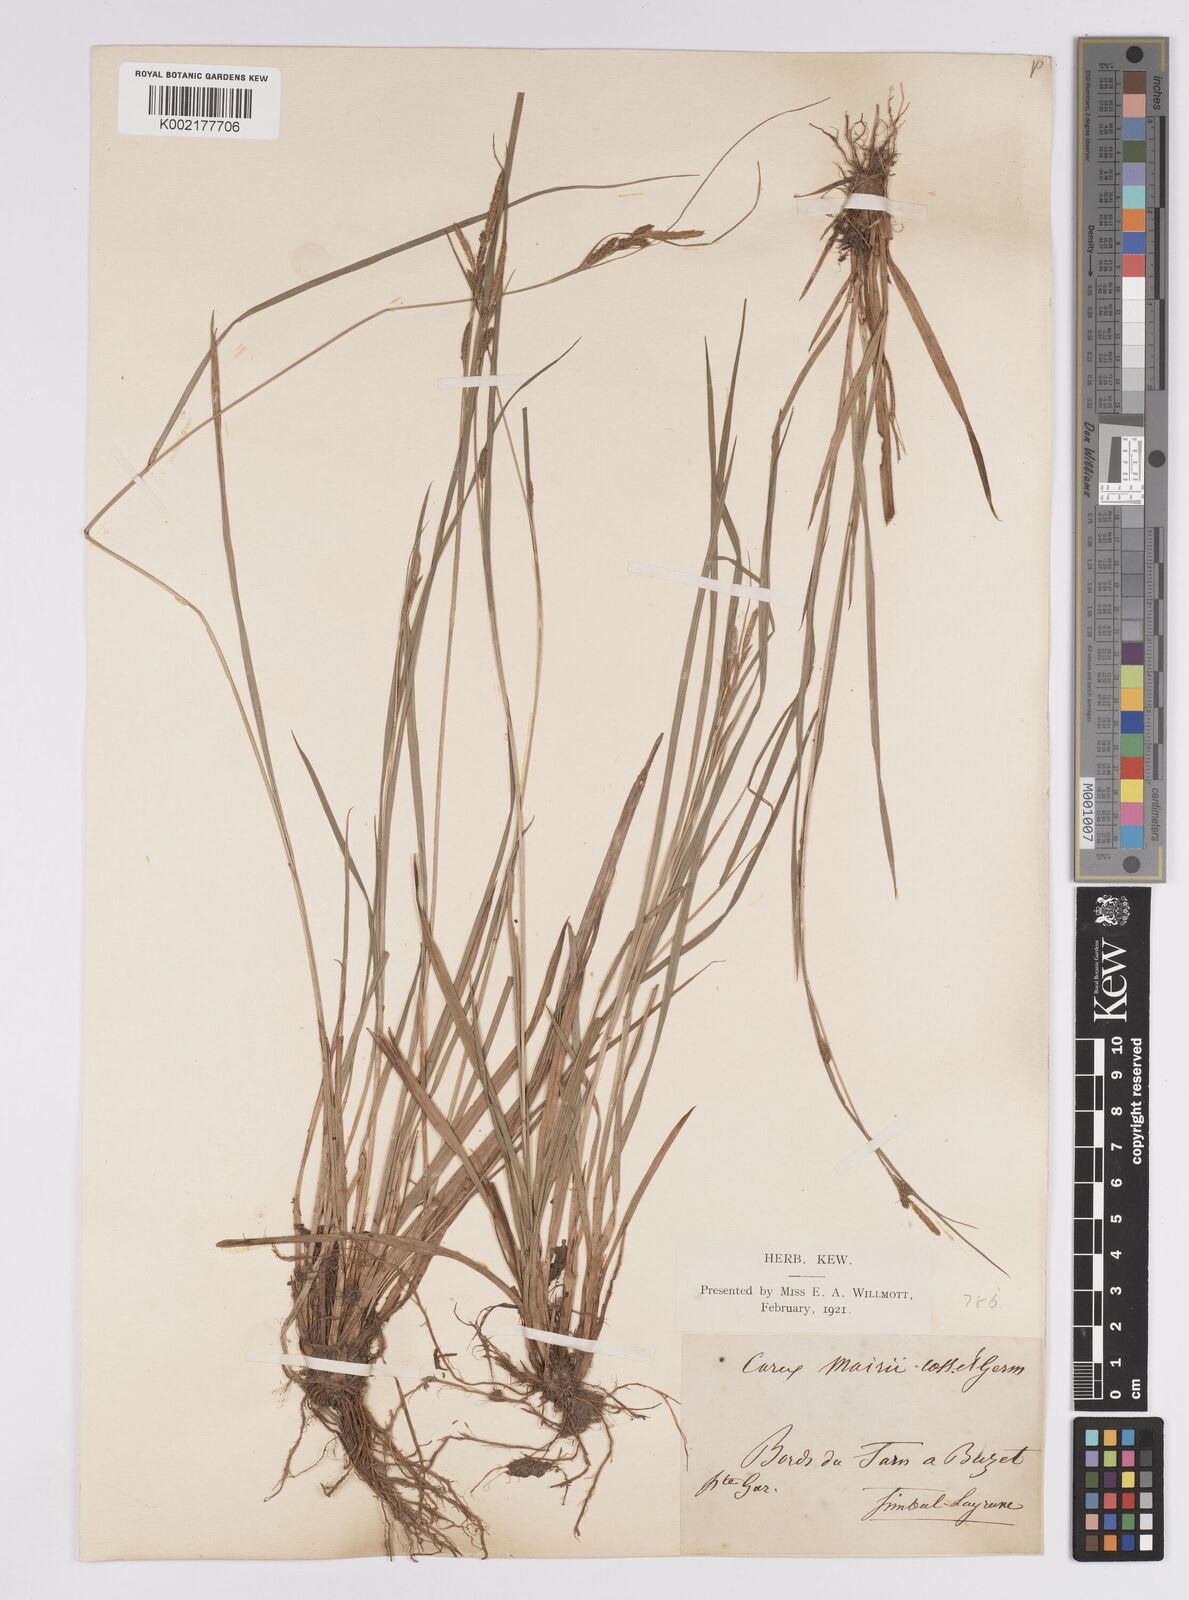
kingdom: Plantae
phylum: Tracheophyta
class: Liliopsida
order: Poales
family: Cyperaceae
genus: Carex
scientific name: Carex mairei
